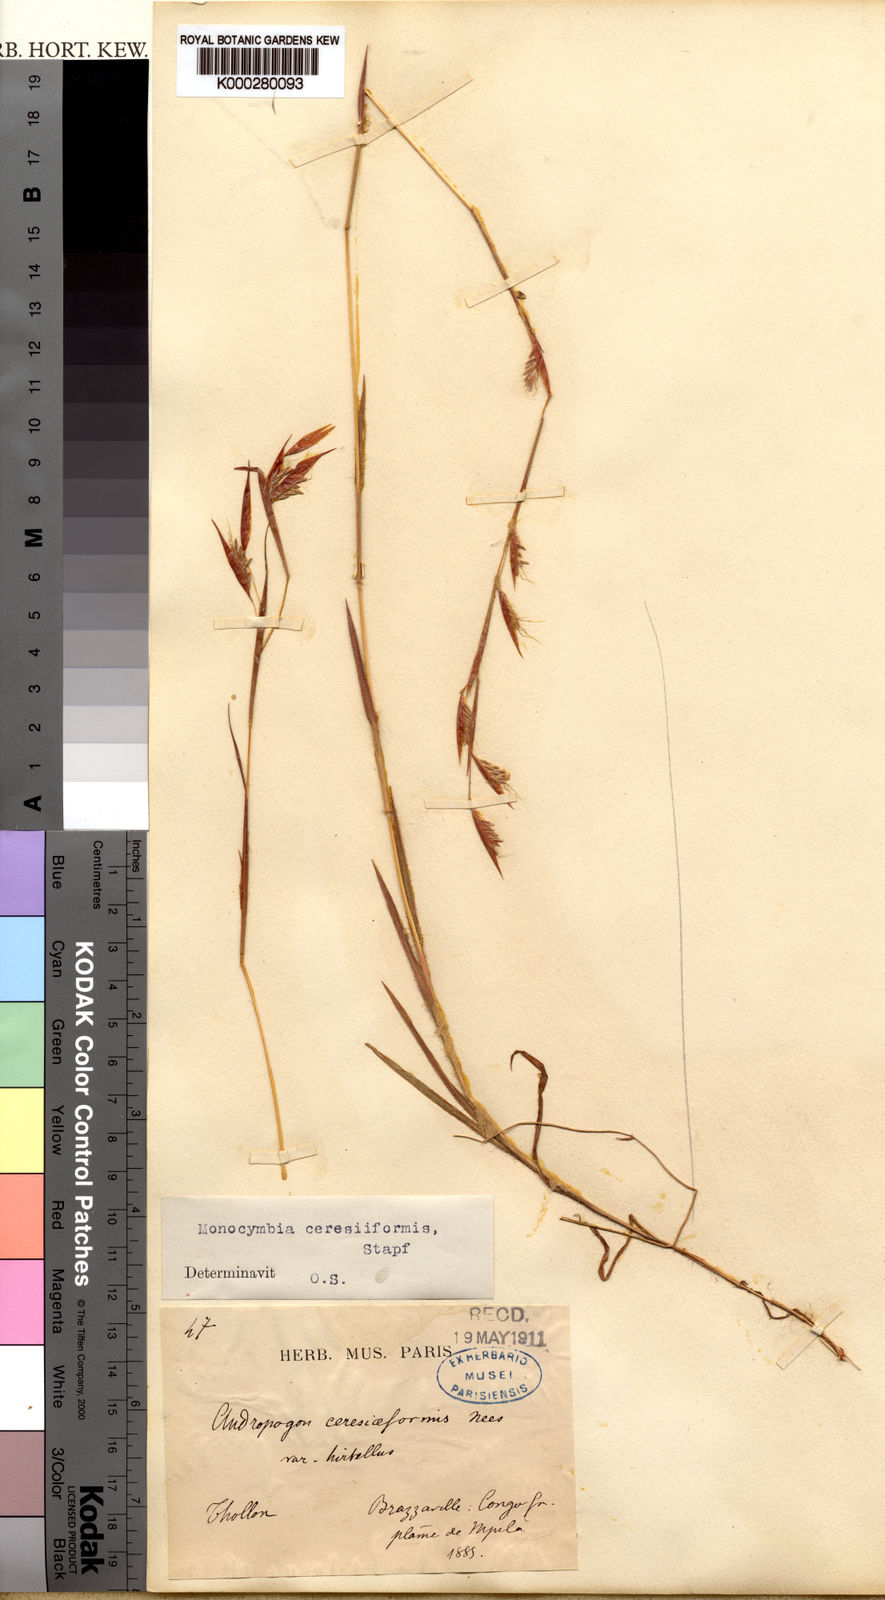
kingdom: Plantae
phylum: Tracheophyta
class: Liliopsida
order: Poales
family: Poaceae
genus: Monocymbium
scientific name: Monocymbium ceresiiforme
